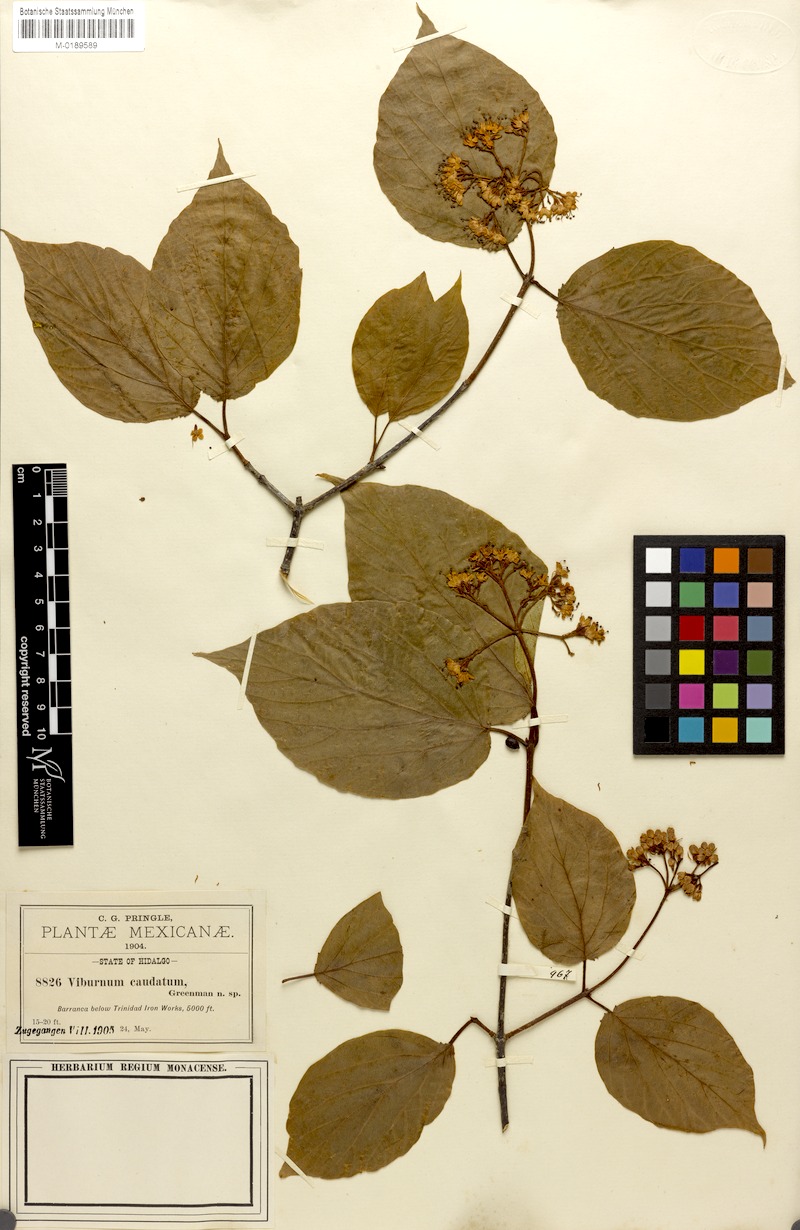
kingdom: Plantae
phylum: Tracheophyta
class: Magnoliopsida
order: Dipsacales
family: Viburnaceae
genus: Viburnum
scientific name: Viburnum caudatum
